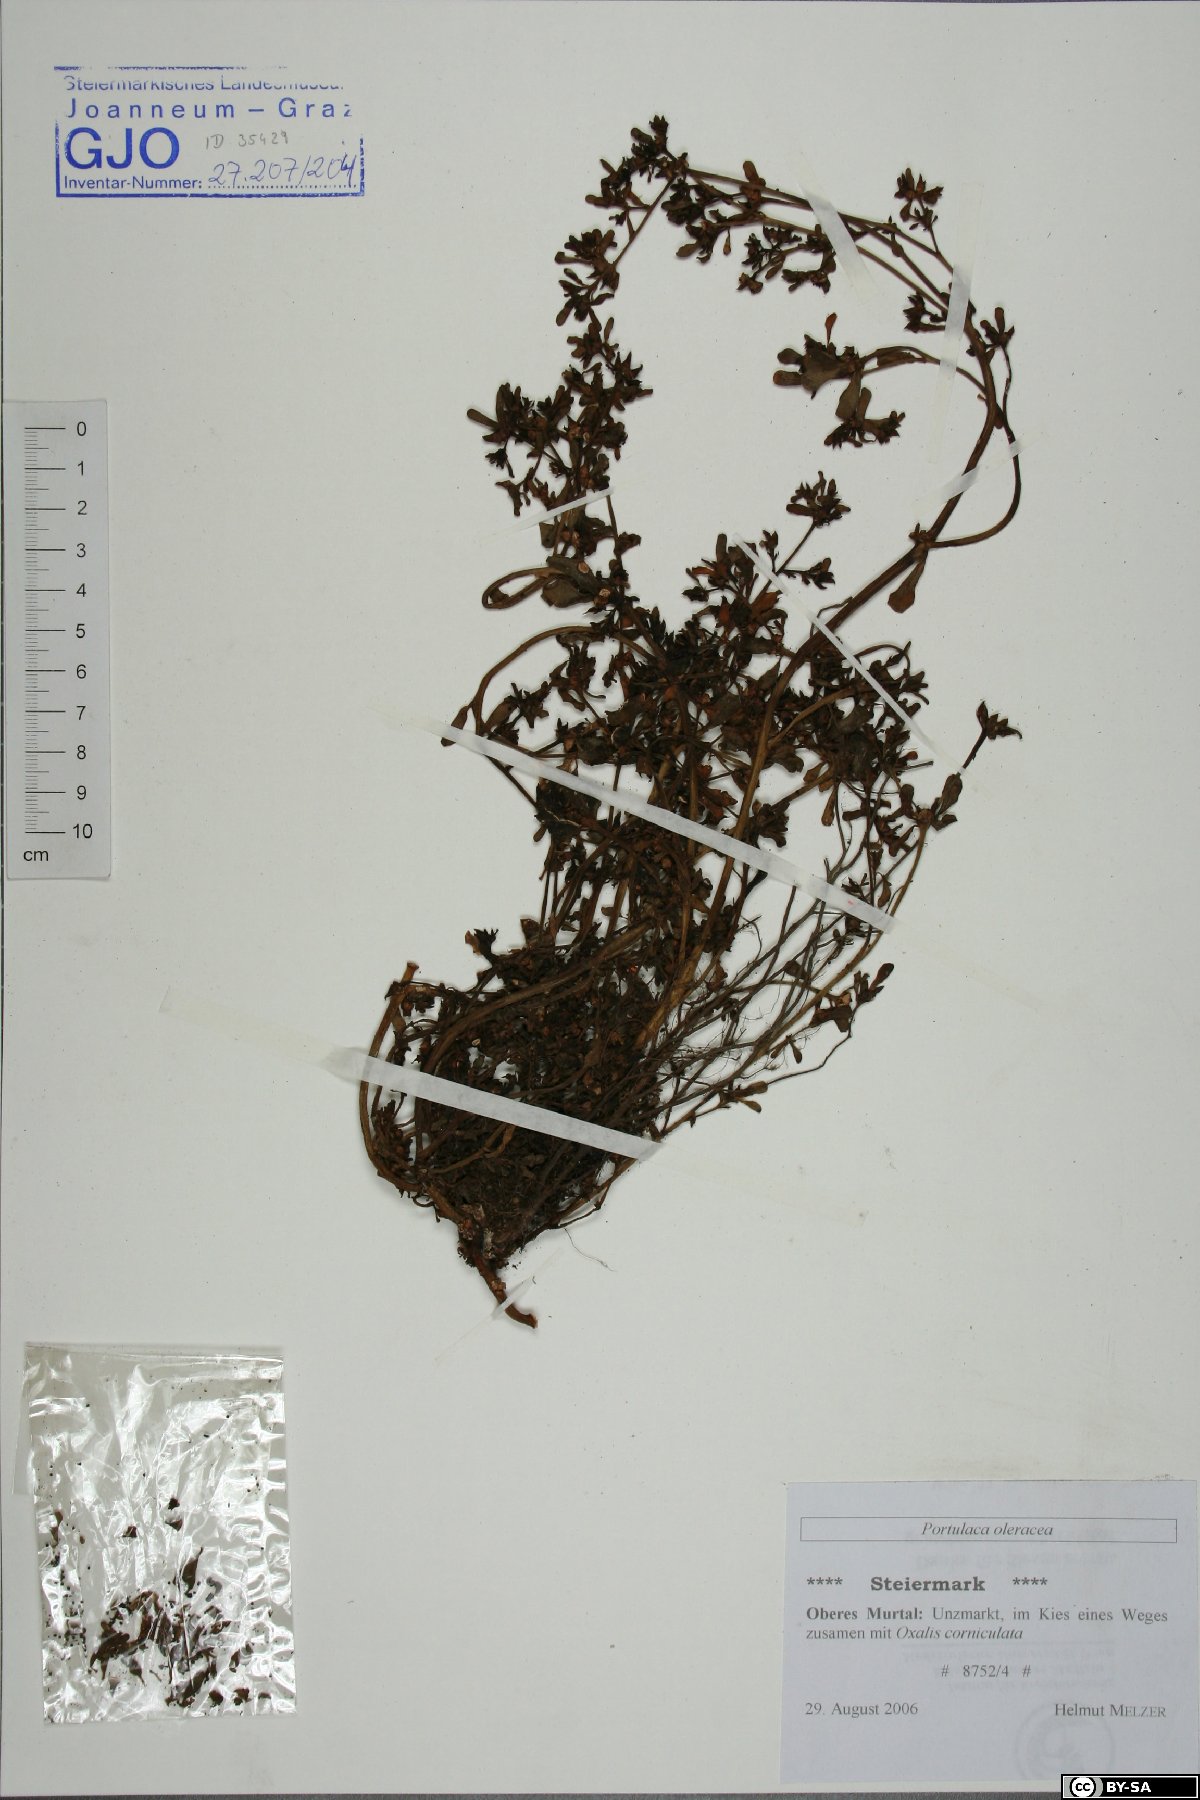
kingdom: Plantae
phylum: Tracheophyta
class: Magnoliopsida
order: Caryophyllales
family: Portulacaceae
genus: Portulaca
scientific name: Portulaca oleracea
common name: Common purslane
